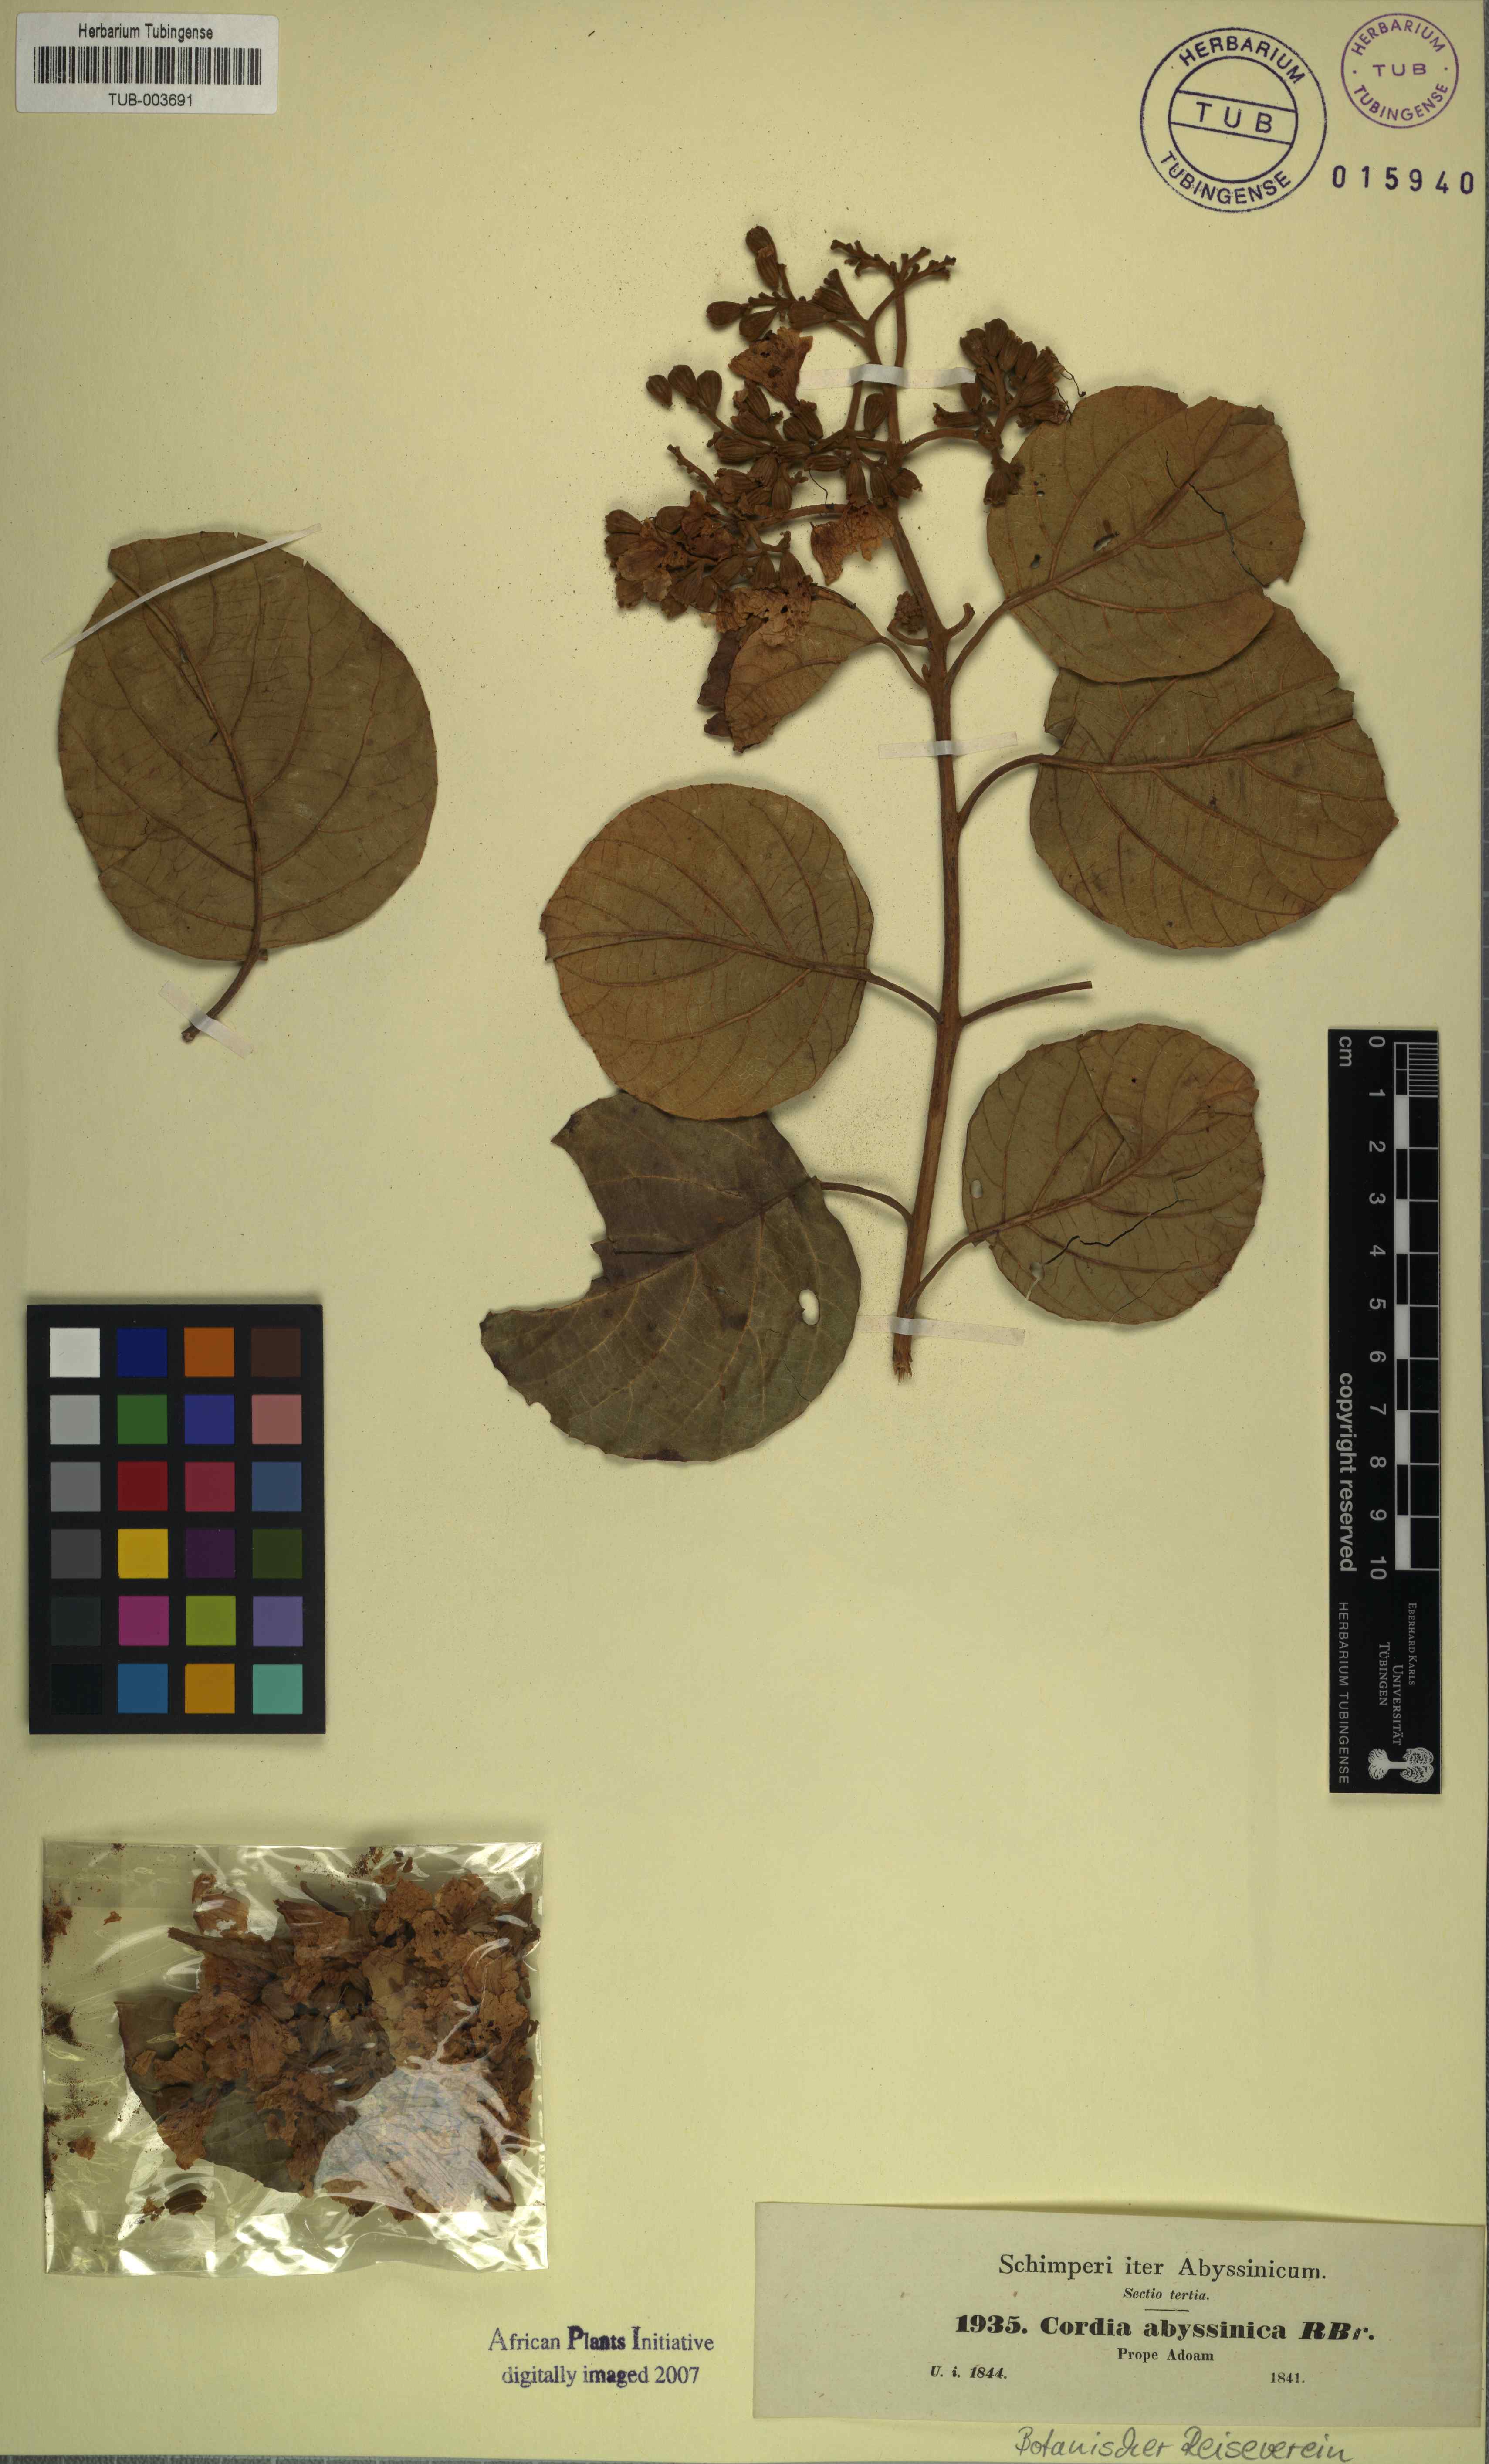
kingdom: Plantae
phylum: Tracheophyta
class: Magnoliopsida
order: Boraginales
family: Cordiaceae
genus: Cordia
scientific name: Cordia crenata
